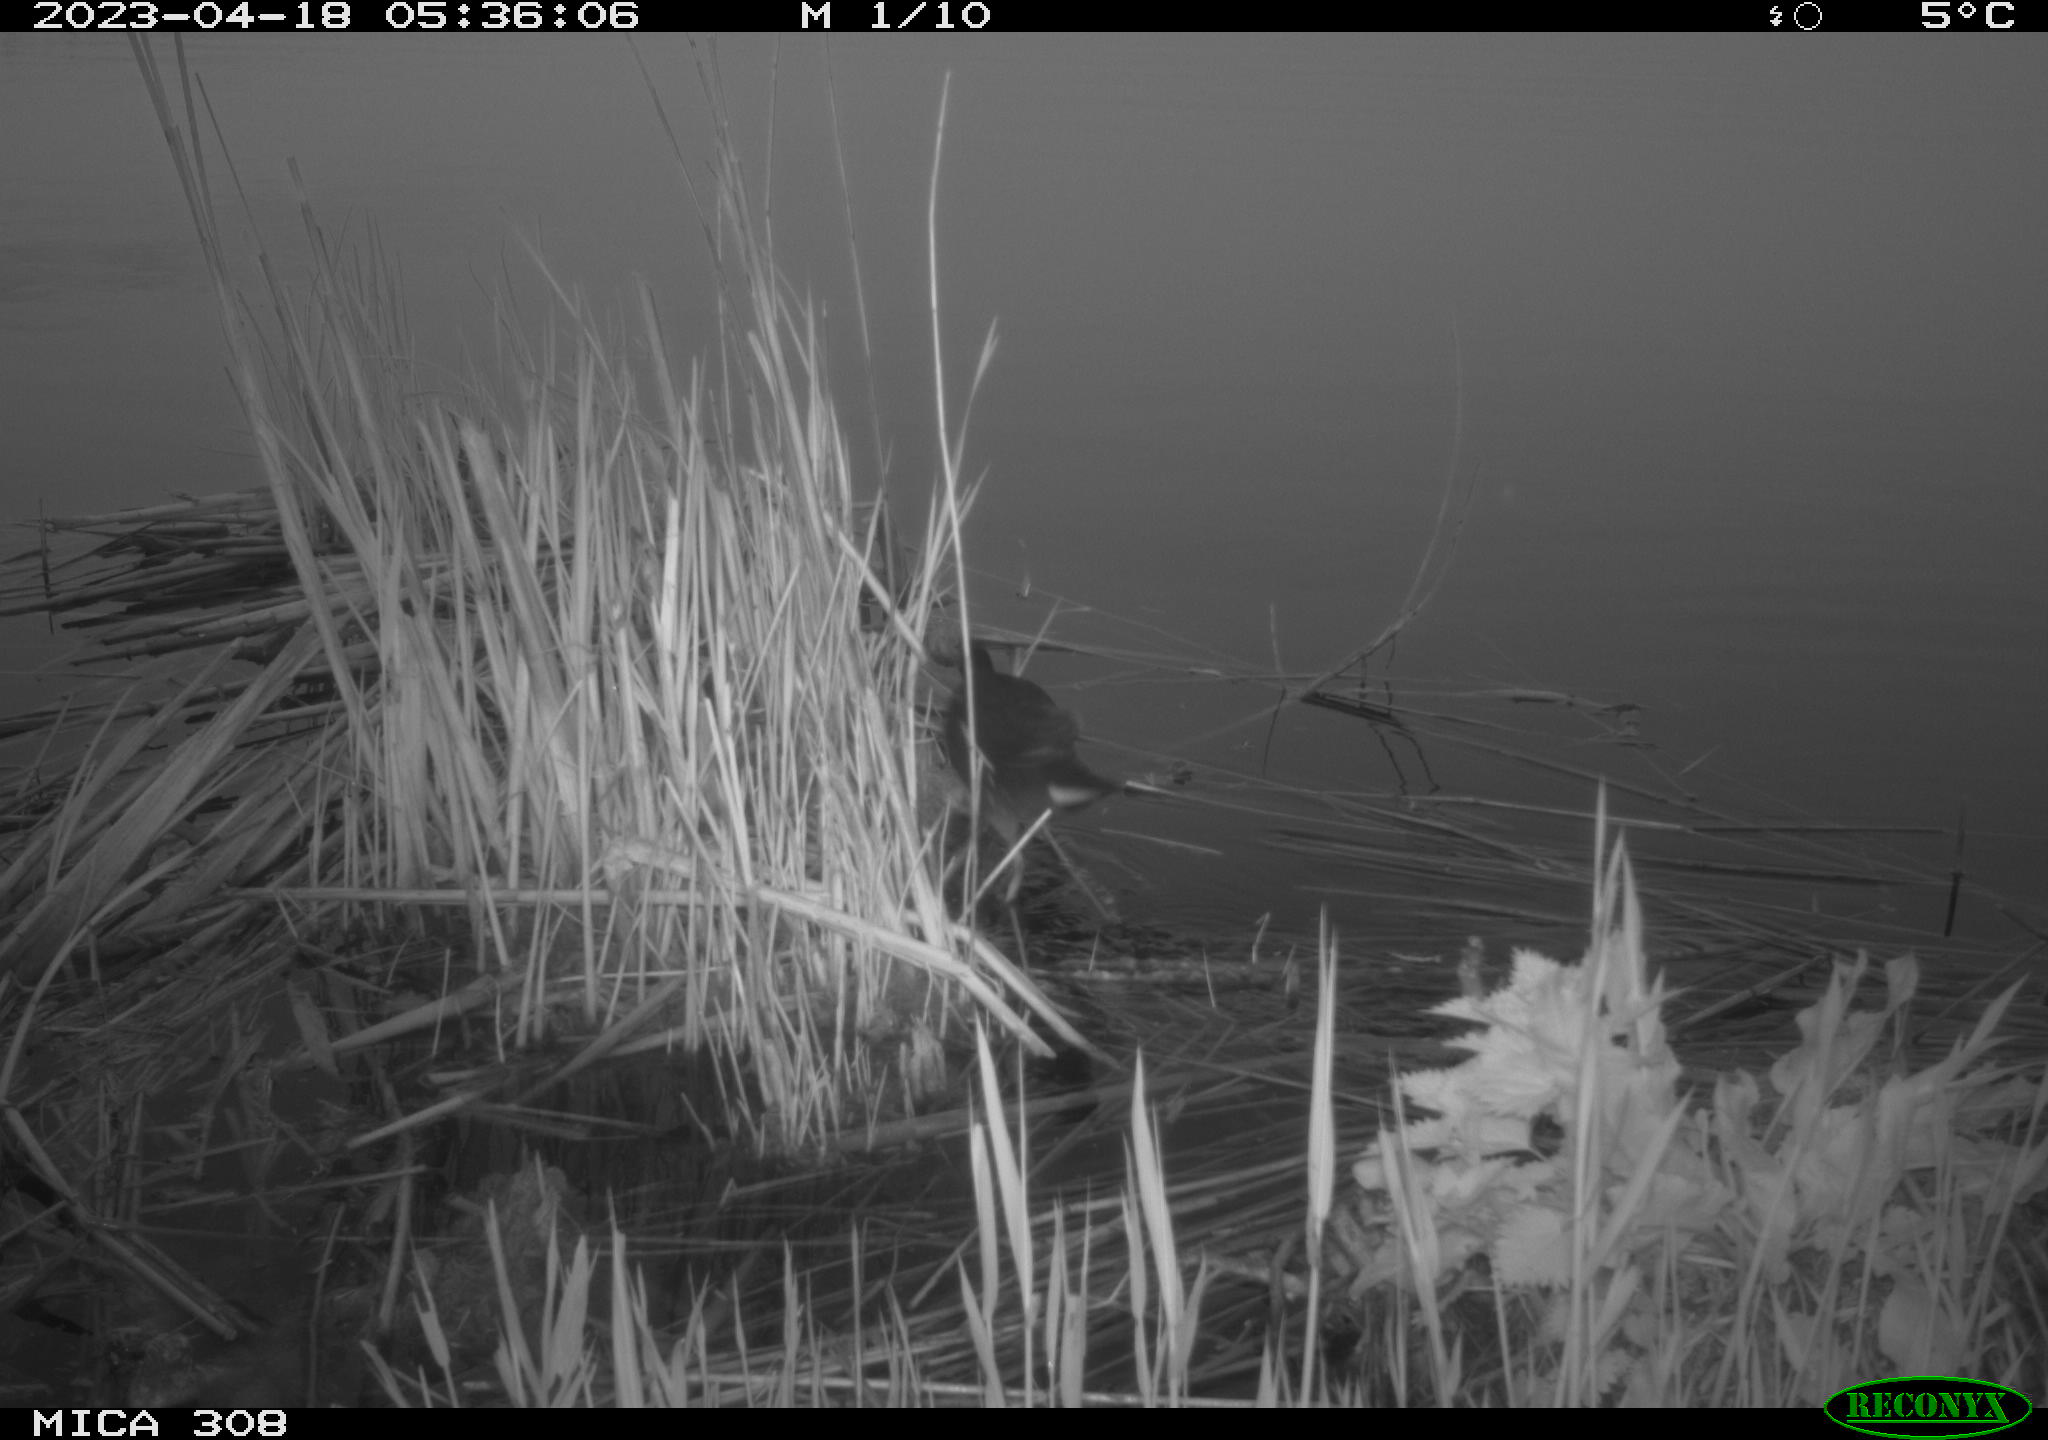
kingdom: Animalia
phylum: Chordata
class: Aves
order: Gruiformes
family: Rallidae
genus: Fulica
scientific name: Fulica atra
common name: Eurasian coot
